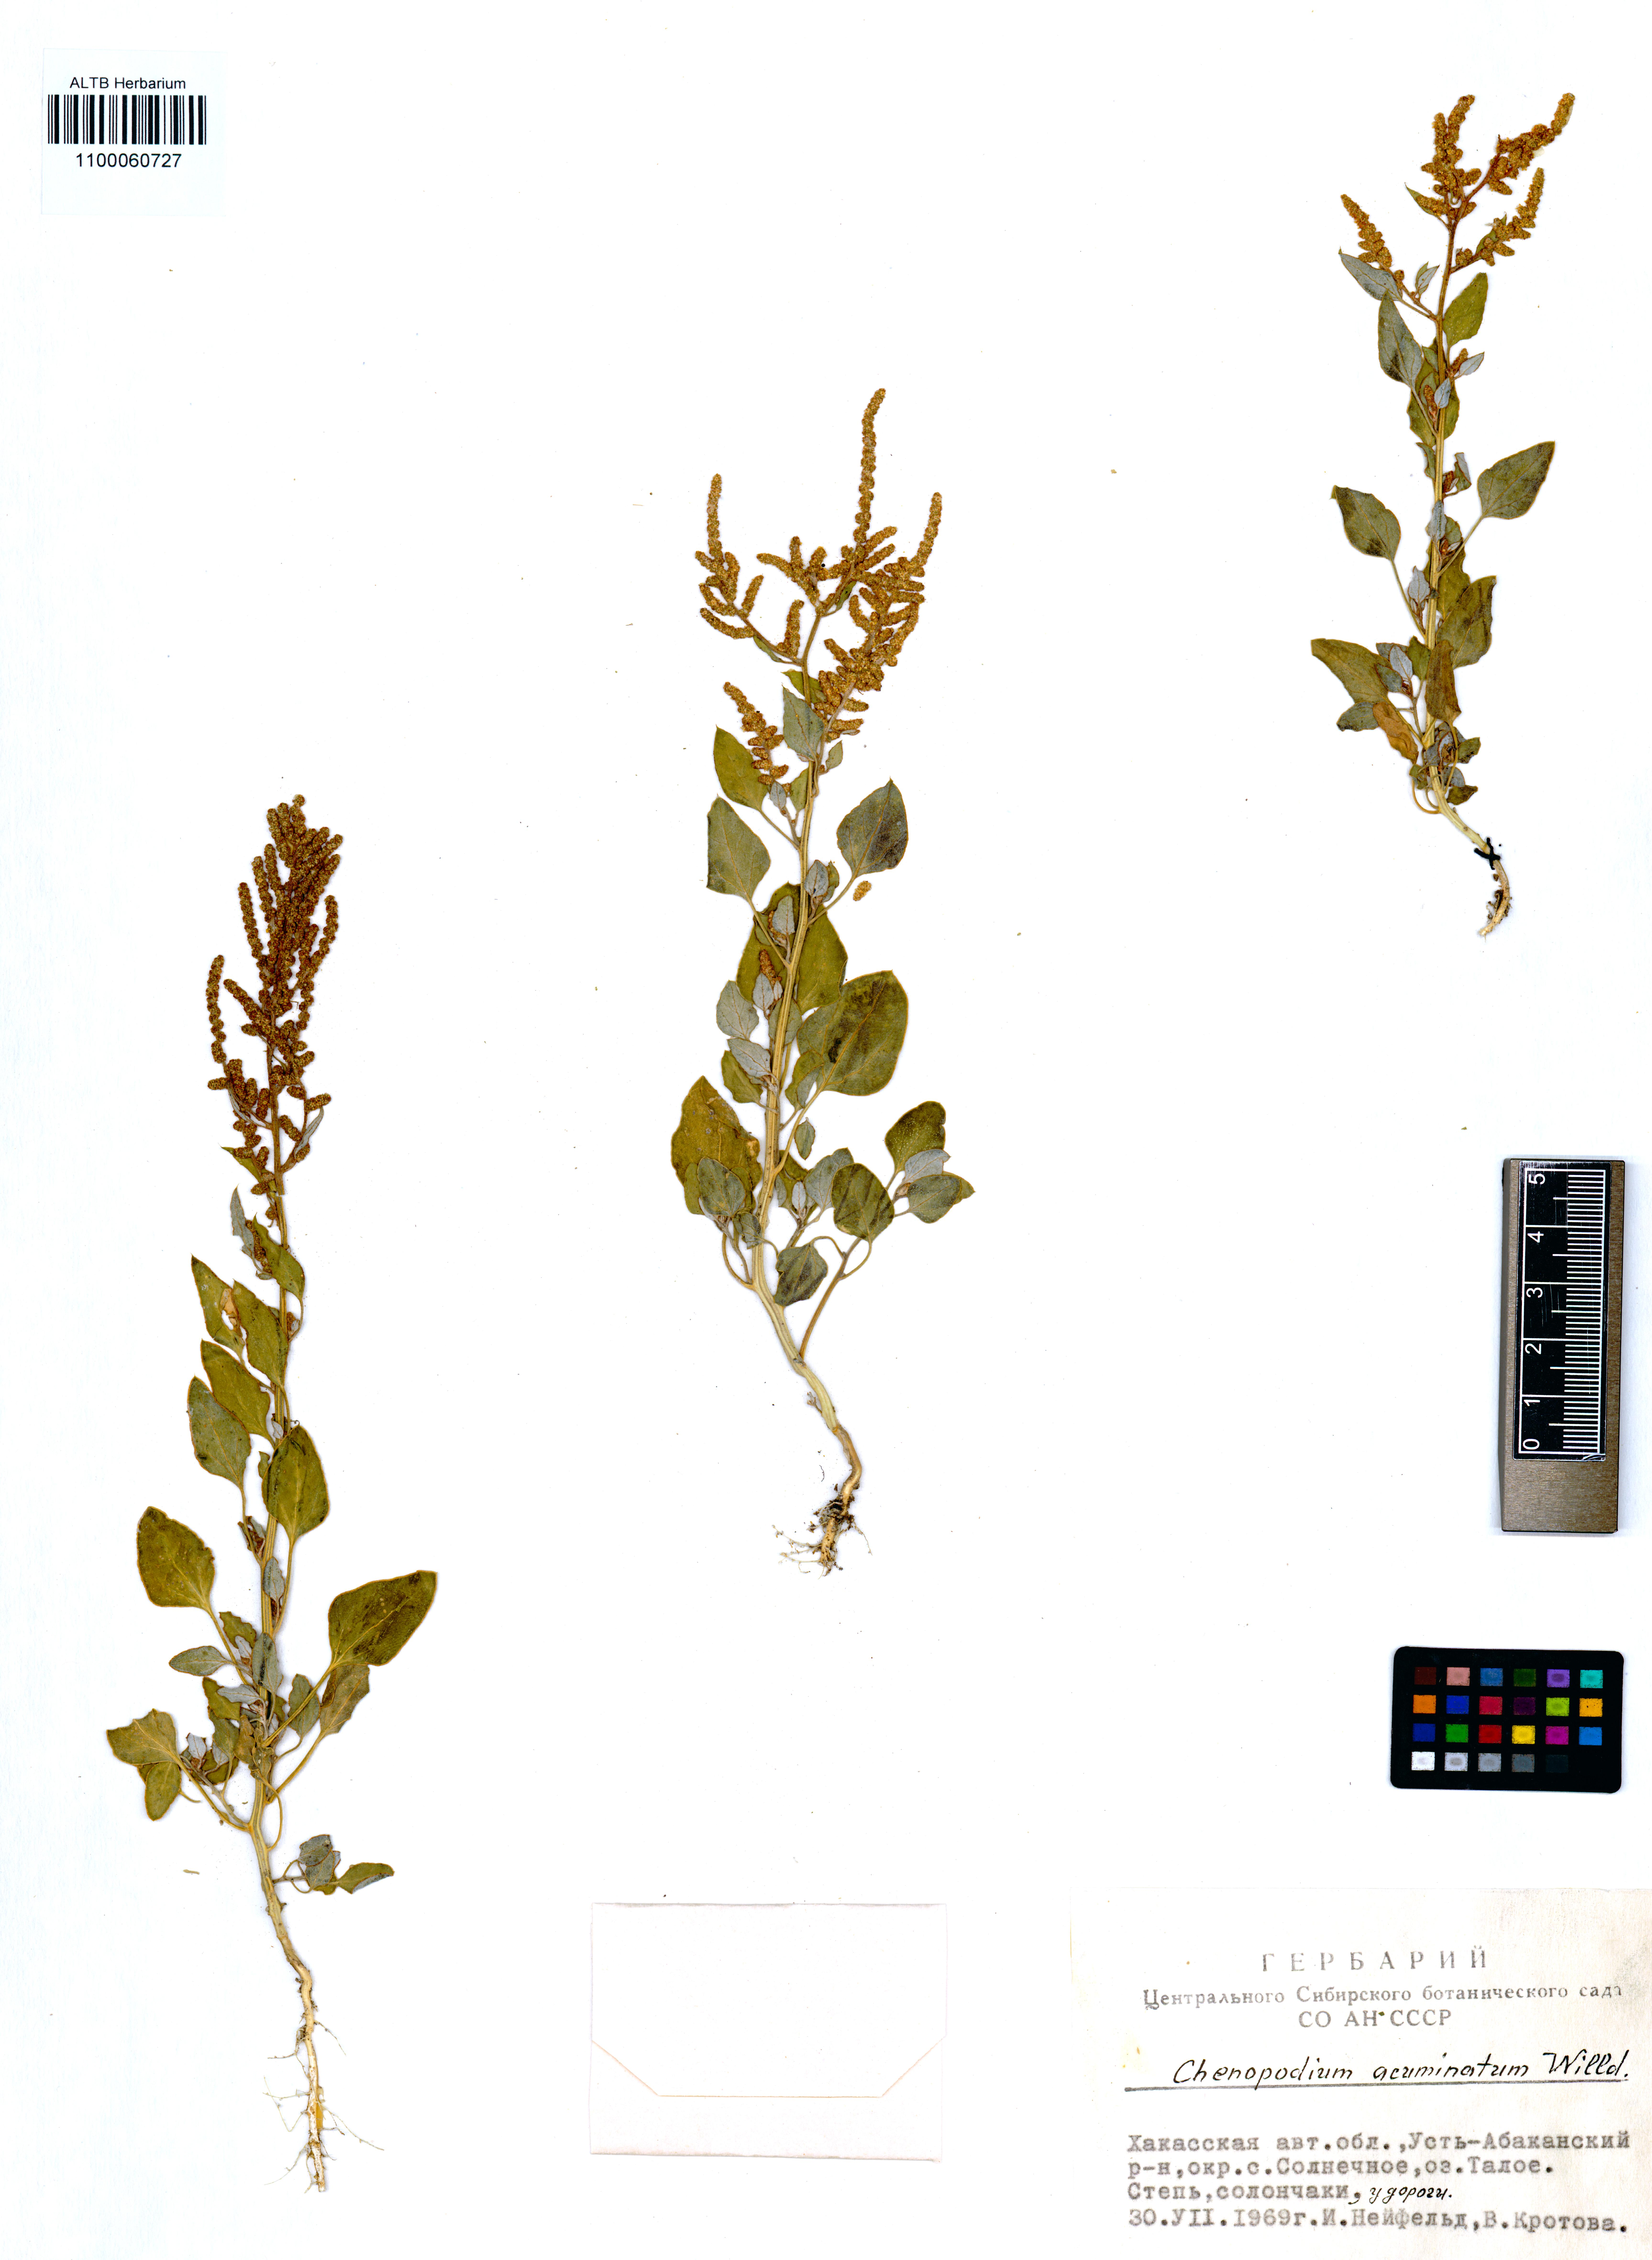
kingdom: Plantae
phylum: Tracheophyta
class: Magnoliopsida
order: Caryophyllales
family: Amaranthaceae
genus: Chenopodium
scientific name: Chenopodium acuminatum
